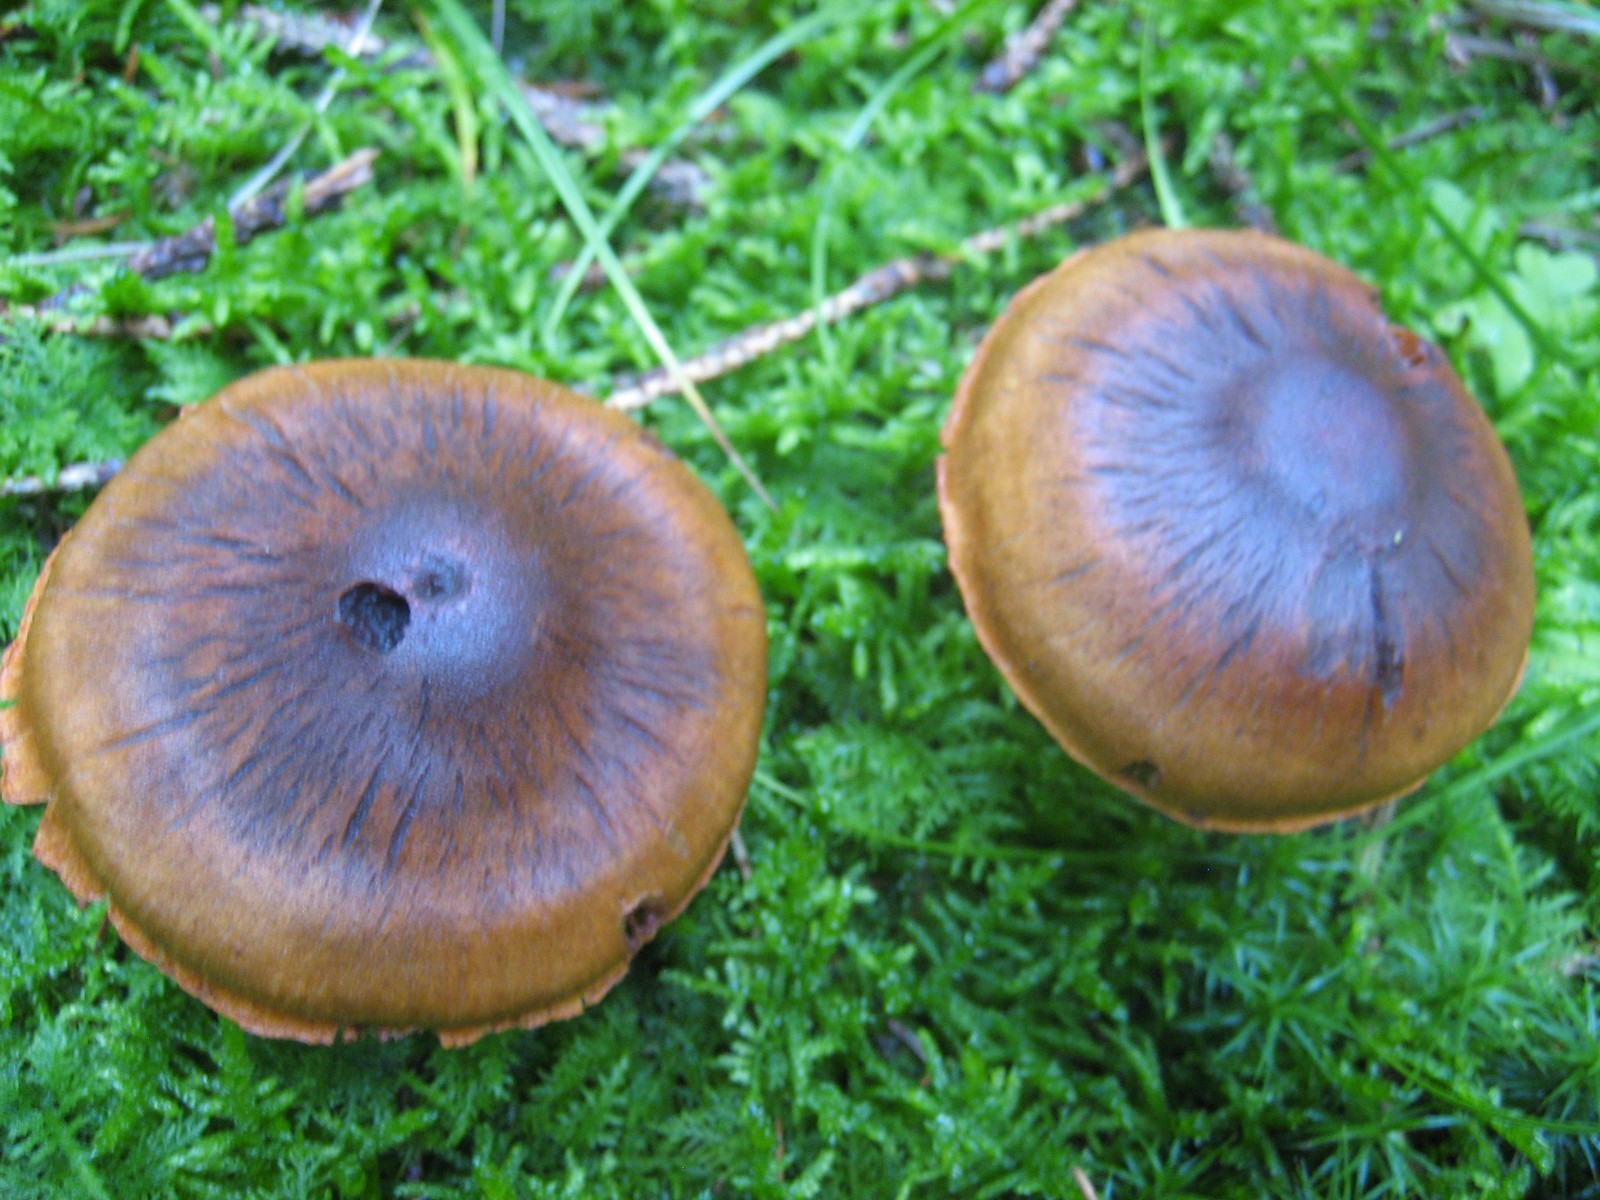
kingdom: Fungi
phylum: Basidiomycota
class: Agaricomycetes
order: Agaricales
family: Cortinariaceae
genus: Cortinarius
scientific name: Cortinarius malicorius
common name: grønkødet slørhat
